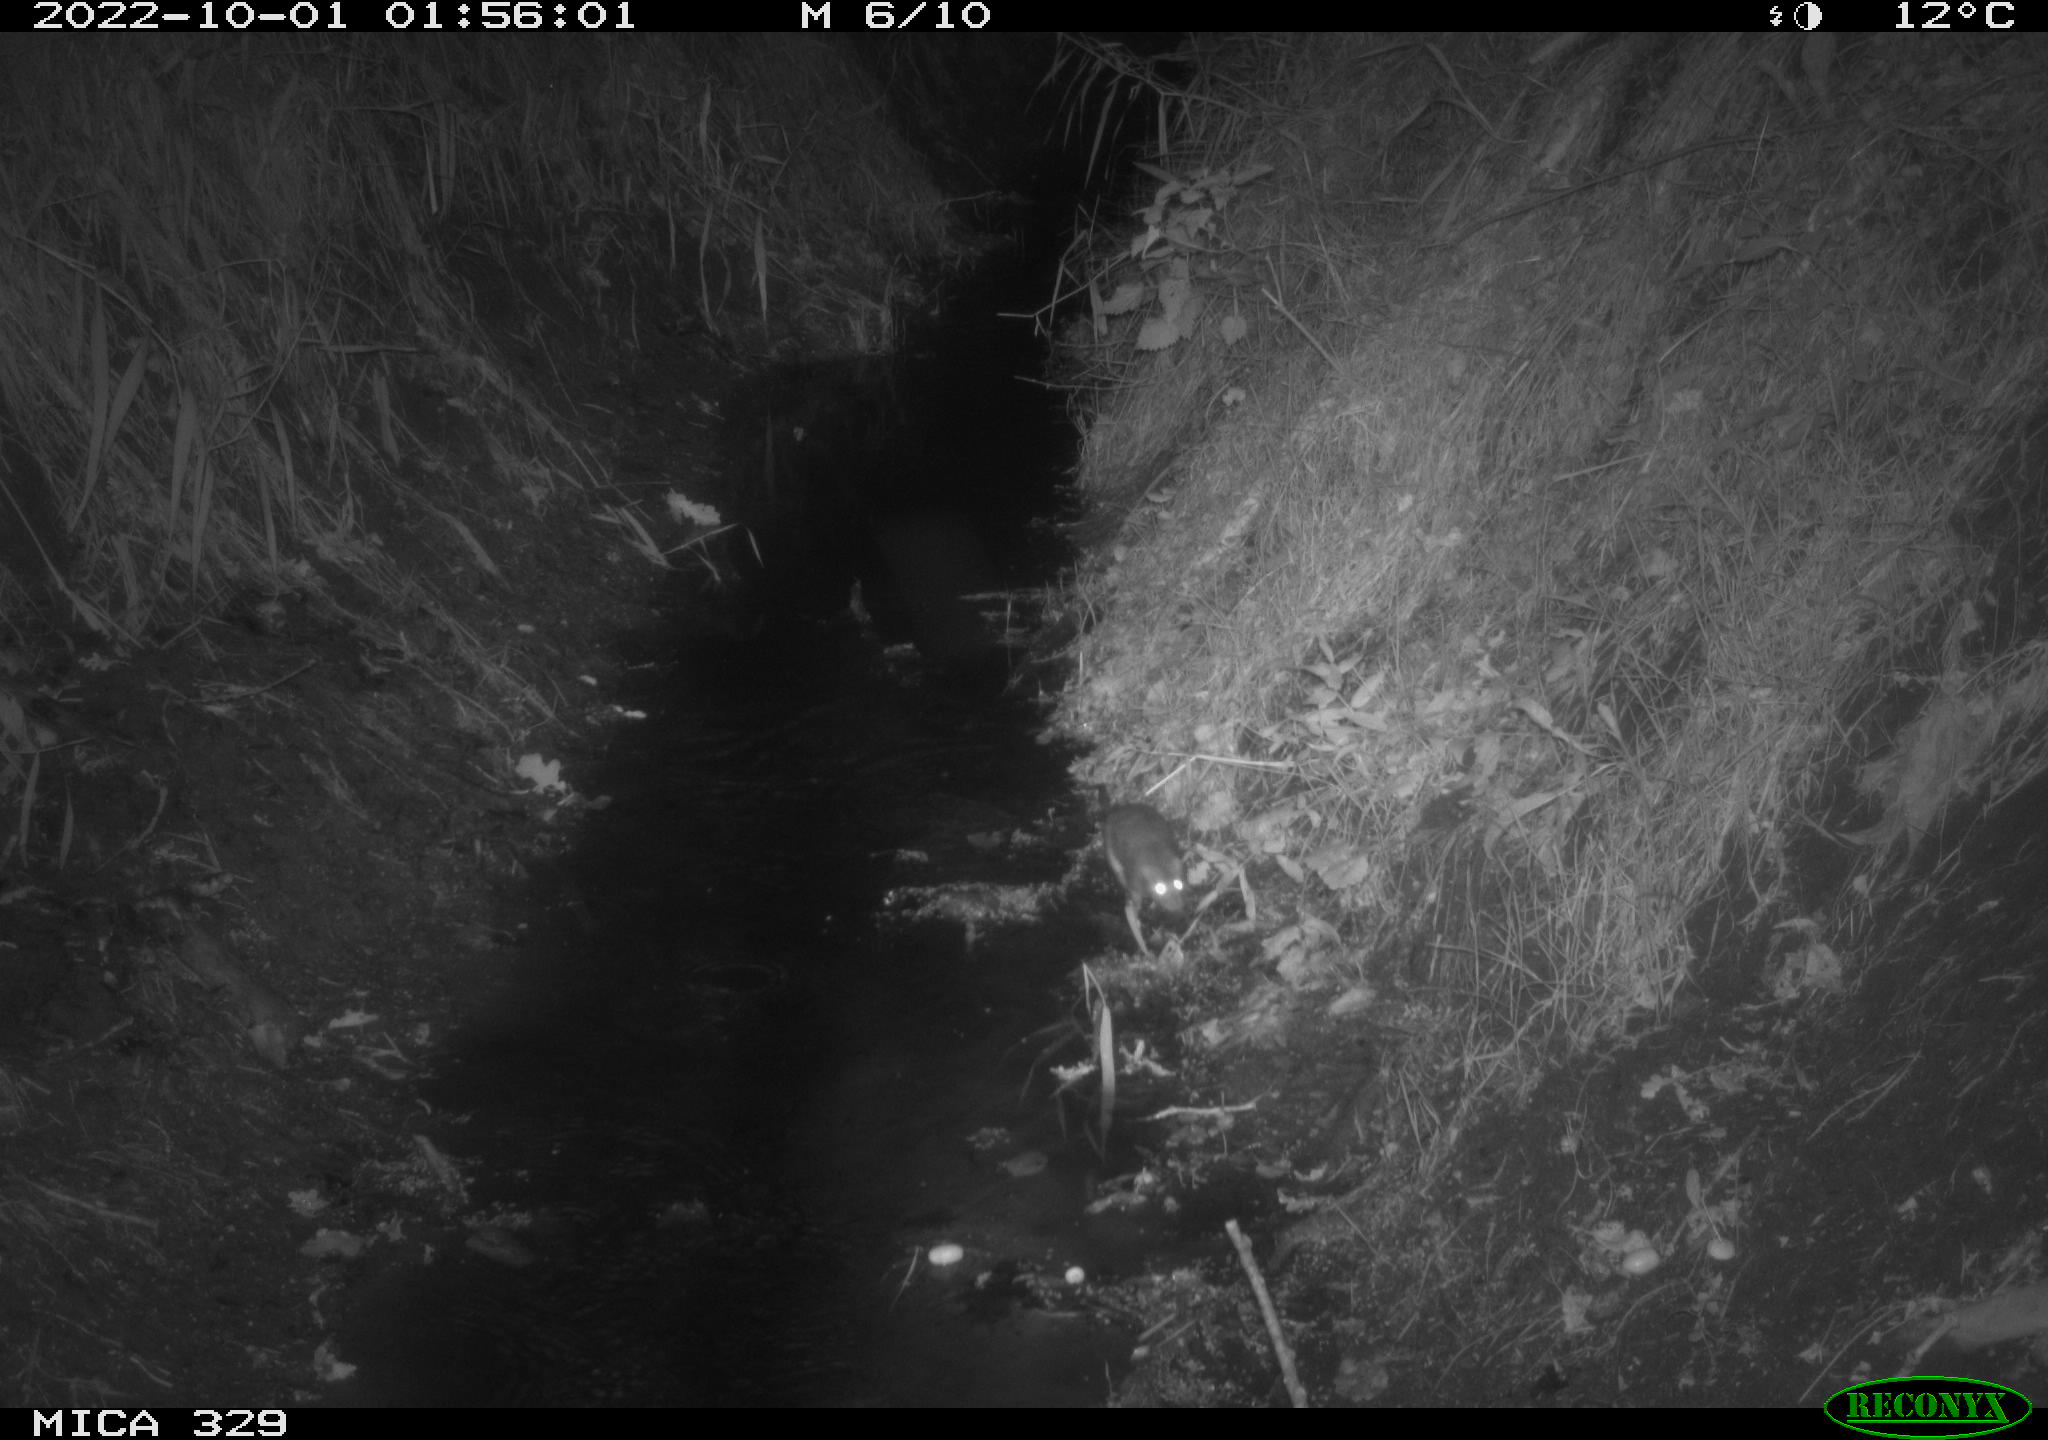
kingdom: Animalia
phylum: Chordata
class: Mammalia
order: Rodentia
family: Muridae
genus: Rattus
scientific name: Rattus norvegicus
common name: Brown rat
